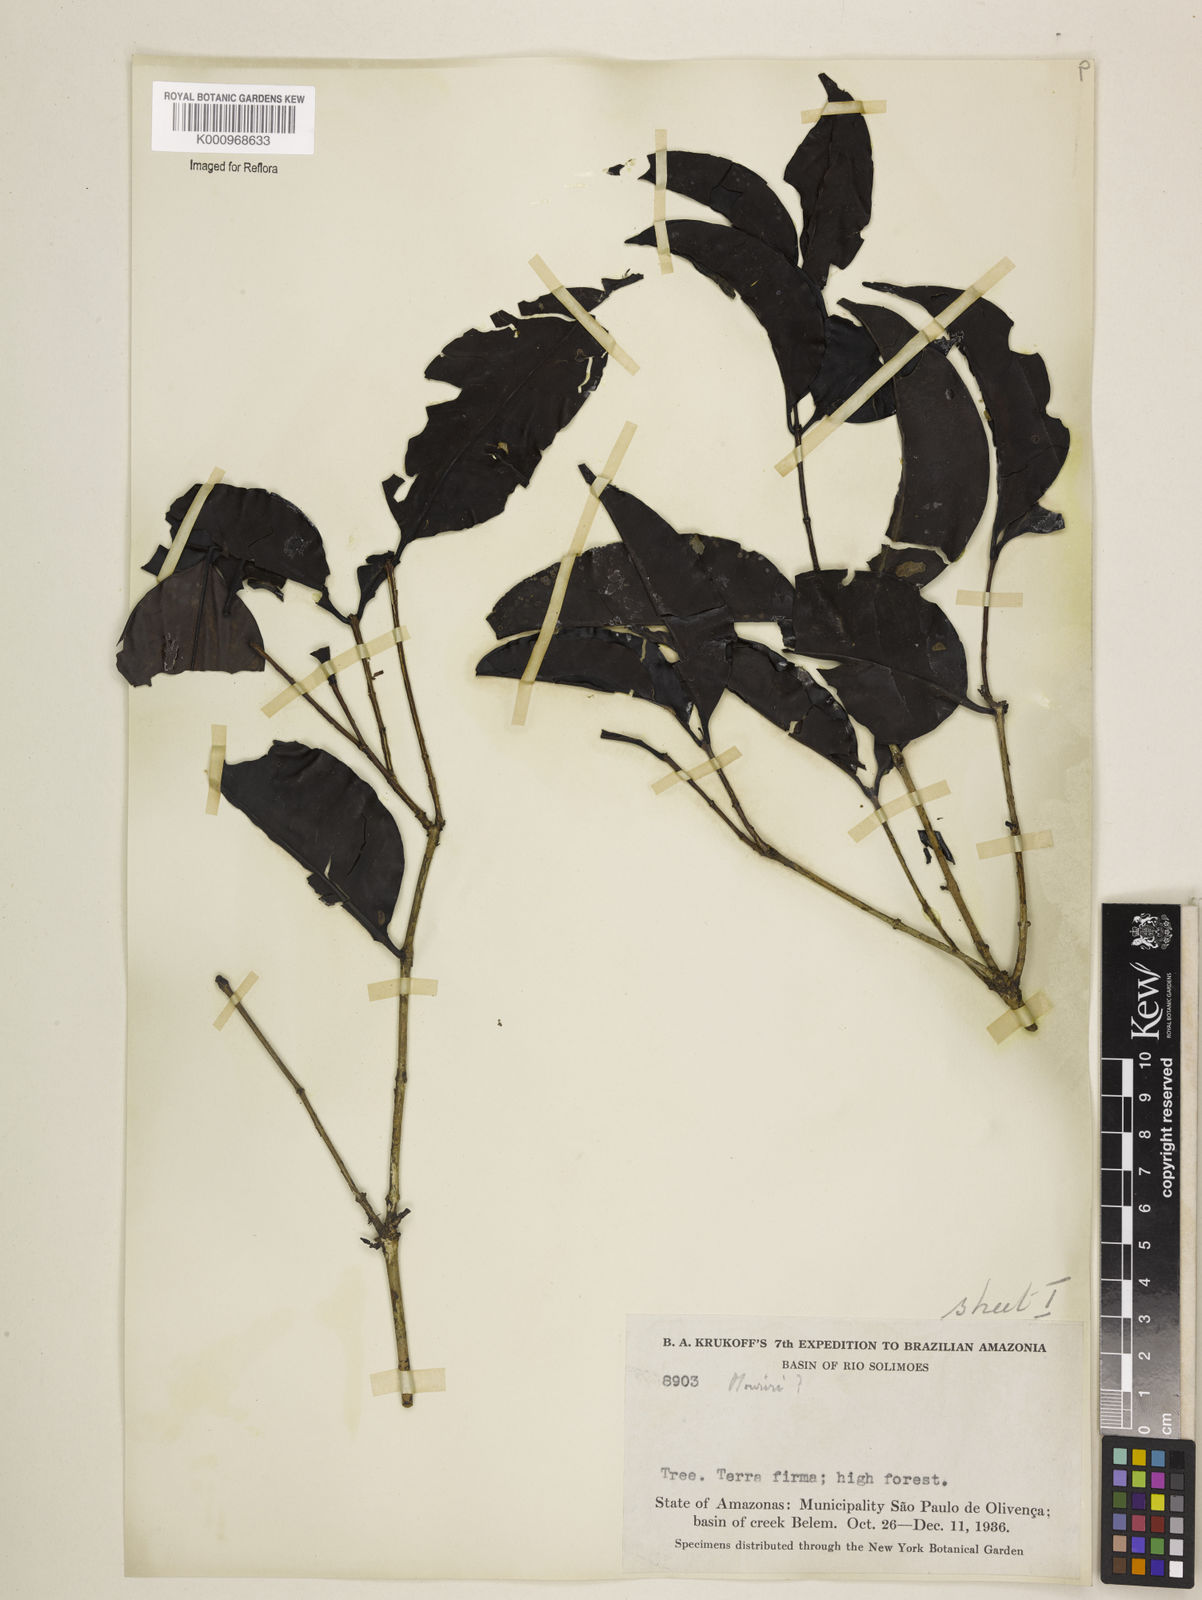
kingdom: Plantae
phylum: Tracheophyta
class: Magnoliopsida
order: Myrtales
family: Melastomataceae
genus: Mouriri
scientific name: Mouriri vernicosa
